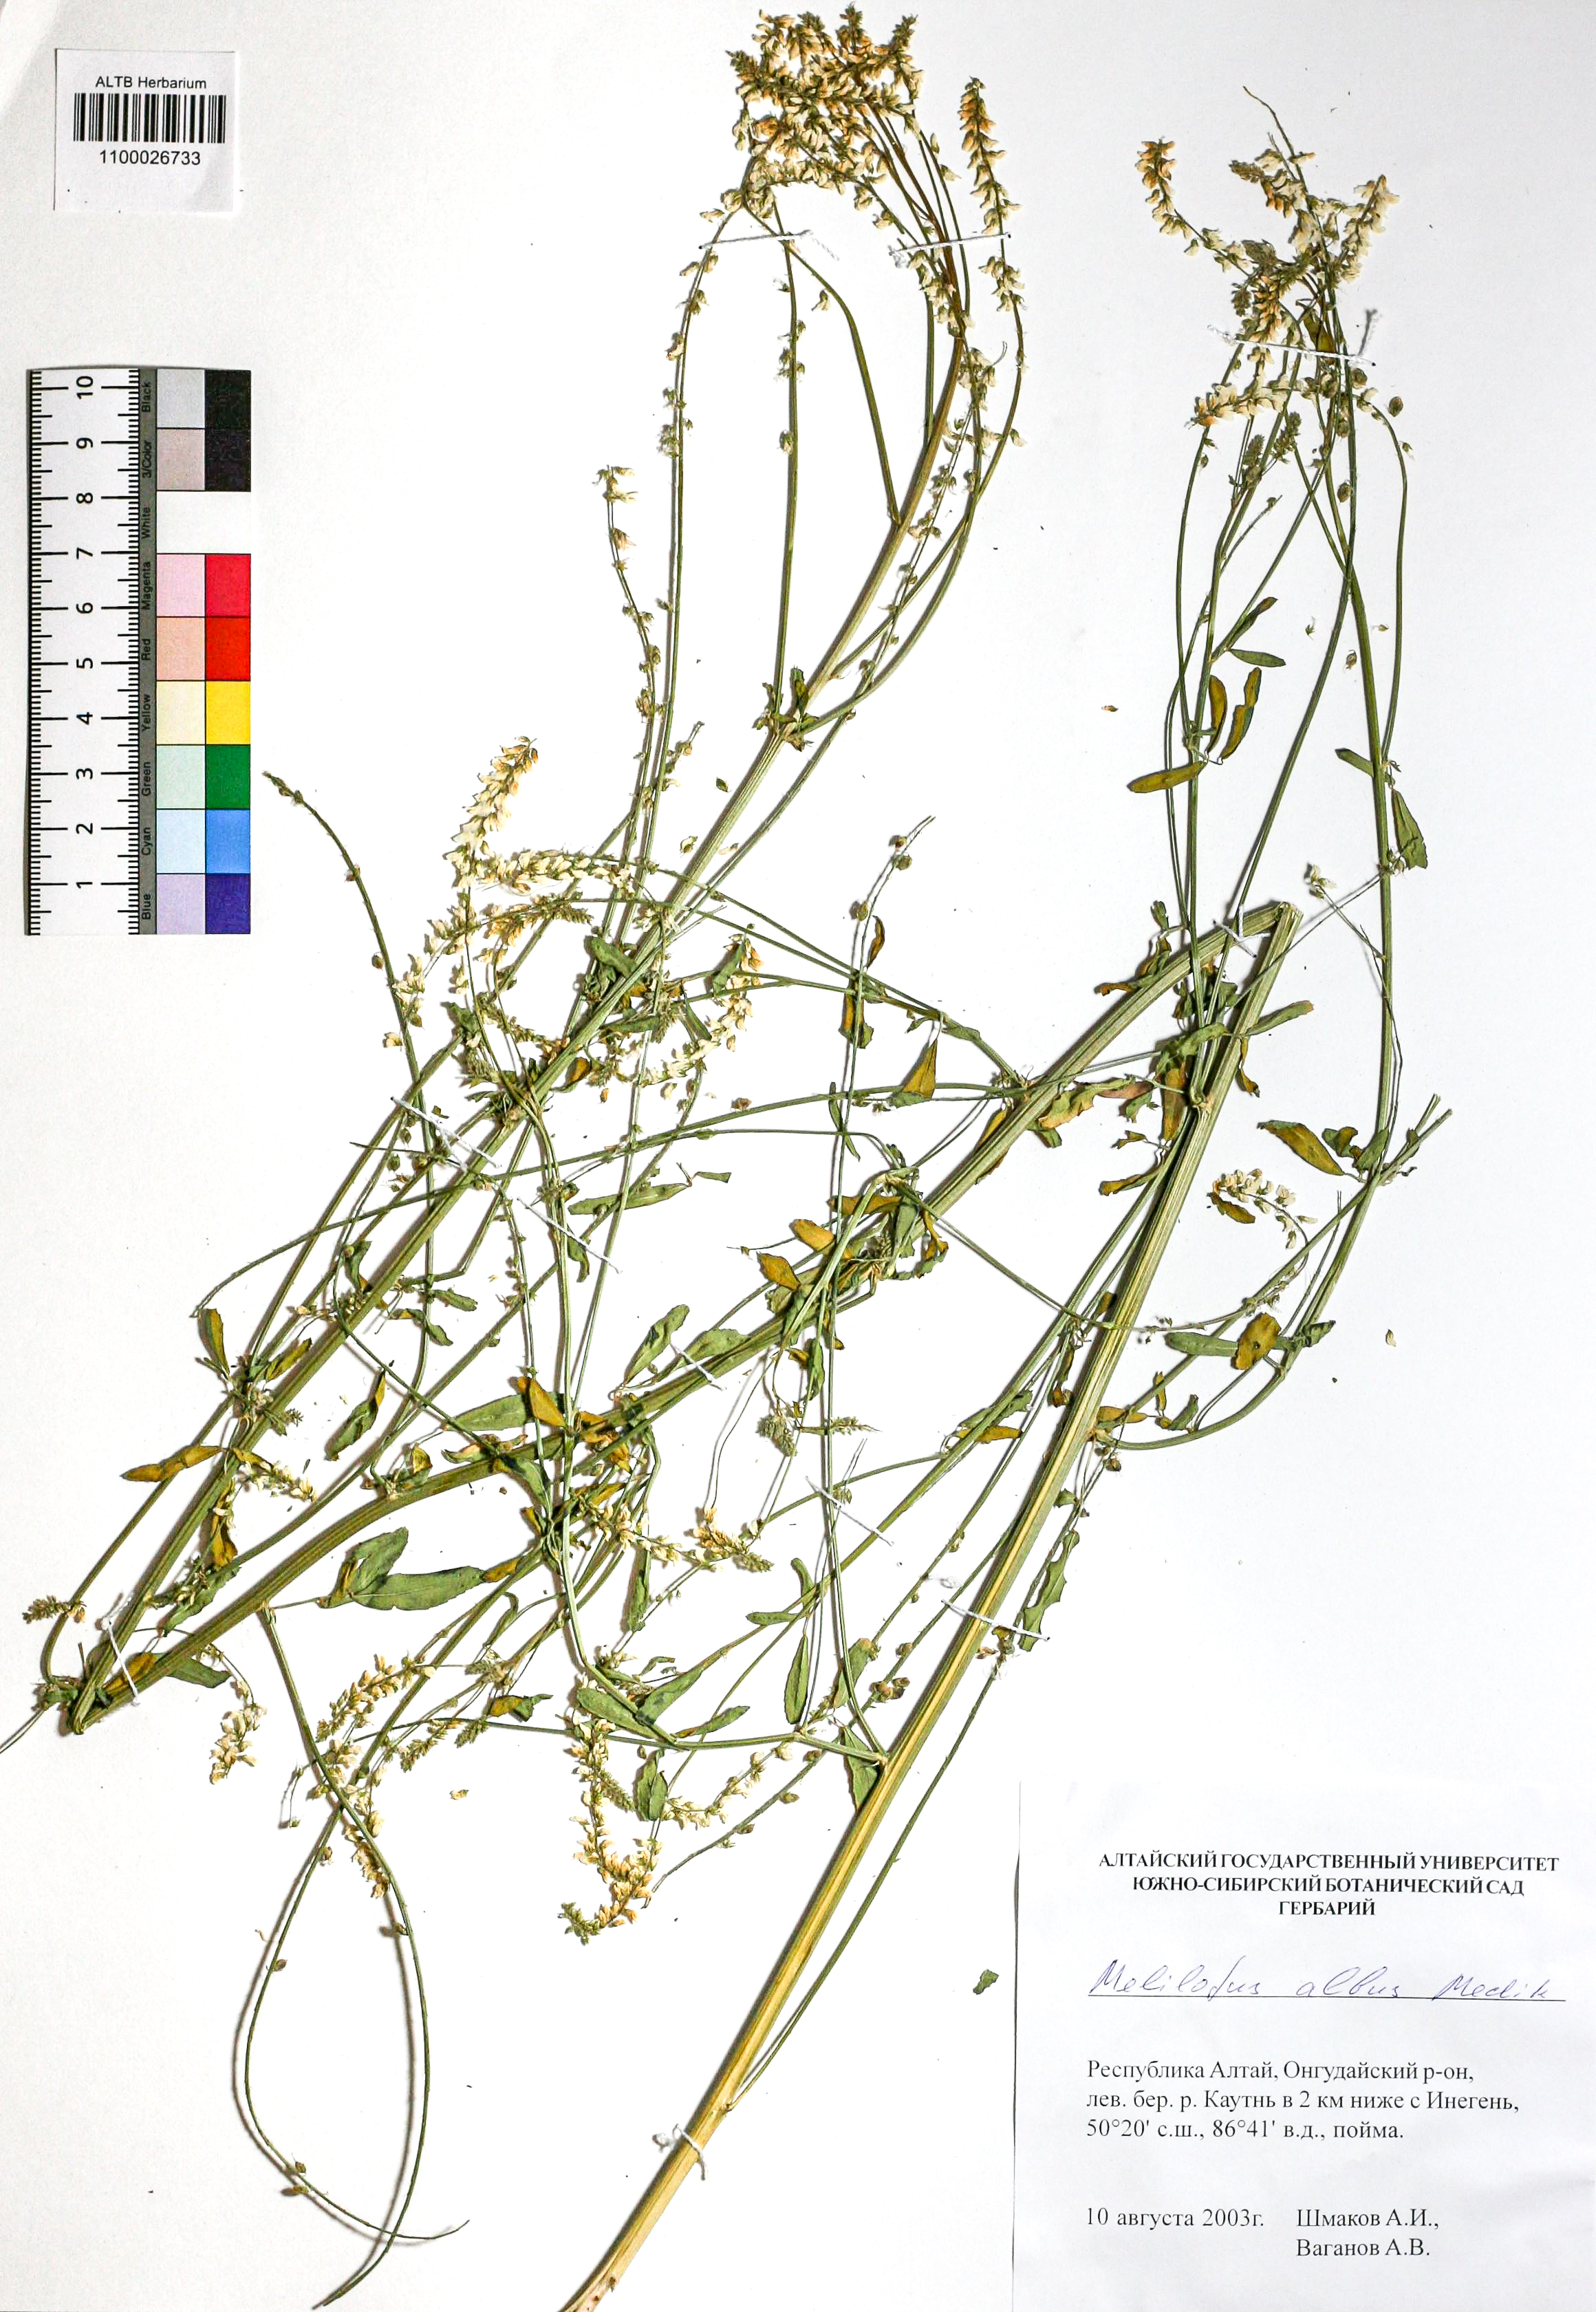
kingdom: Plantae
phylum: Tracheophyta
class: Magnoliopsida
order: Fabales
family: Fabaceae
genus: Melilotus
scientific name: Melilotus albus
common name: White melilot
